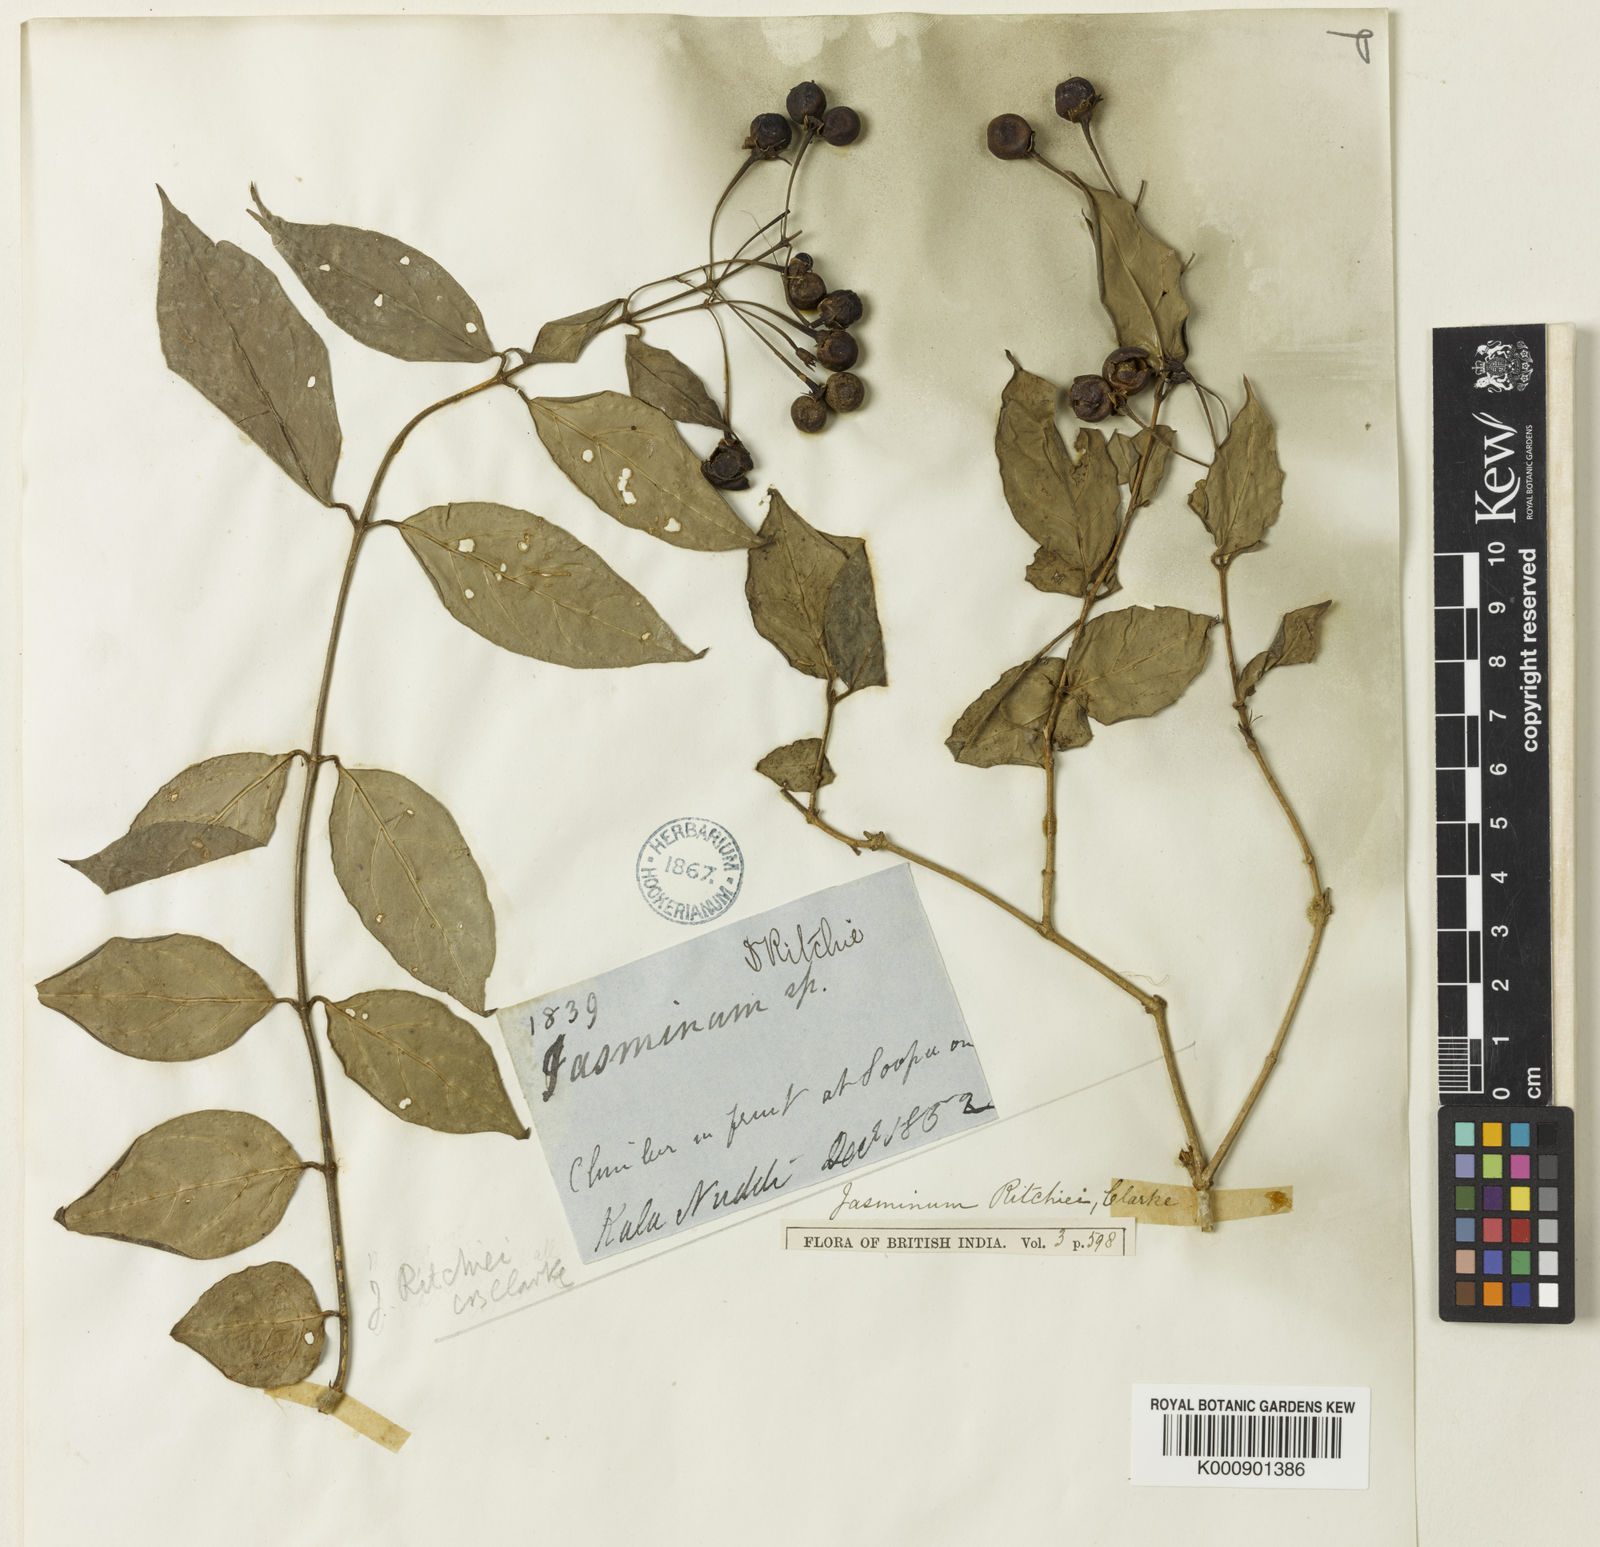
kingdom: Plantae
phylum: Tracheophyta
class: Magnoliopsida
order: Lamiales
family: Oleaceae
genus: Jasminum
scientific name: Jasminum ritchiei
